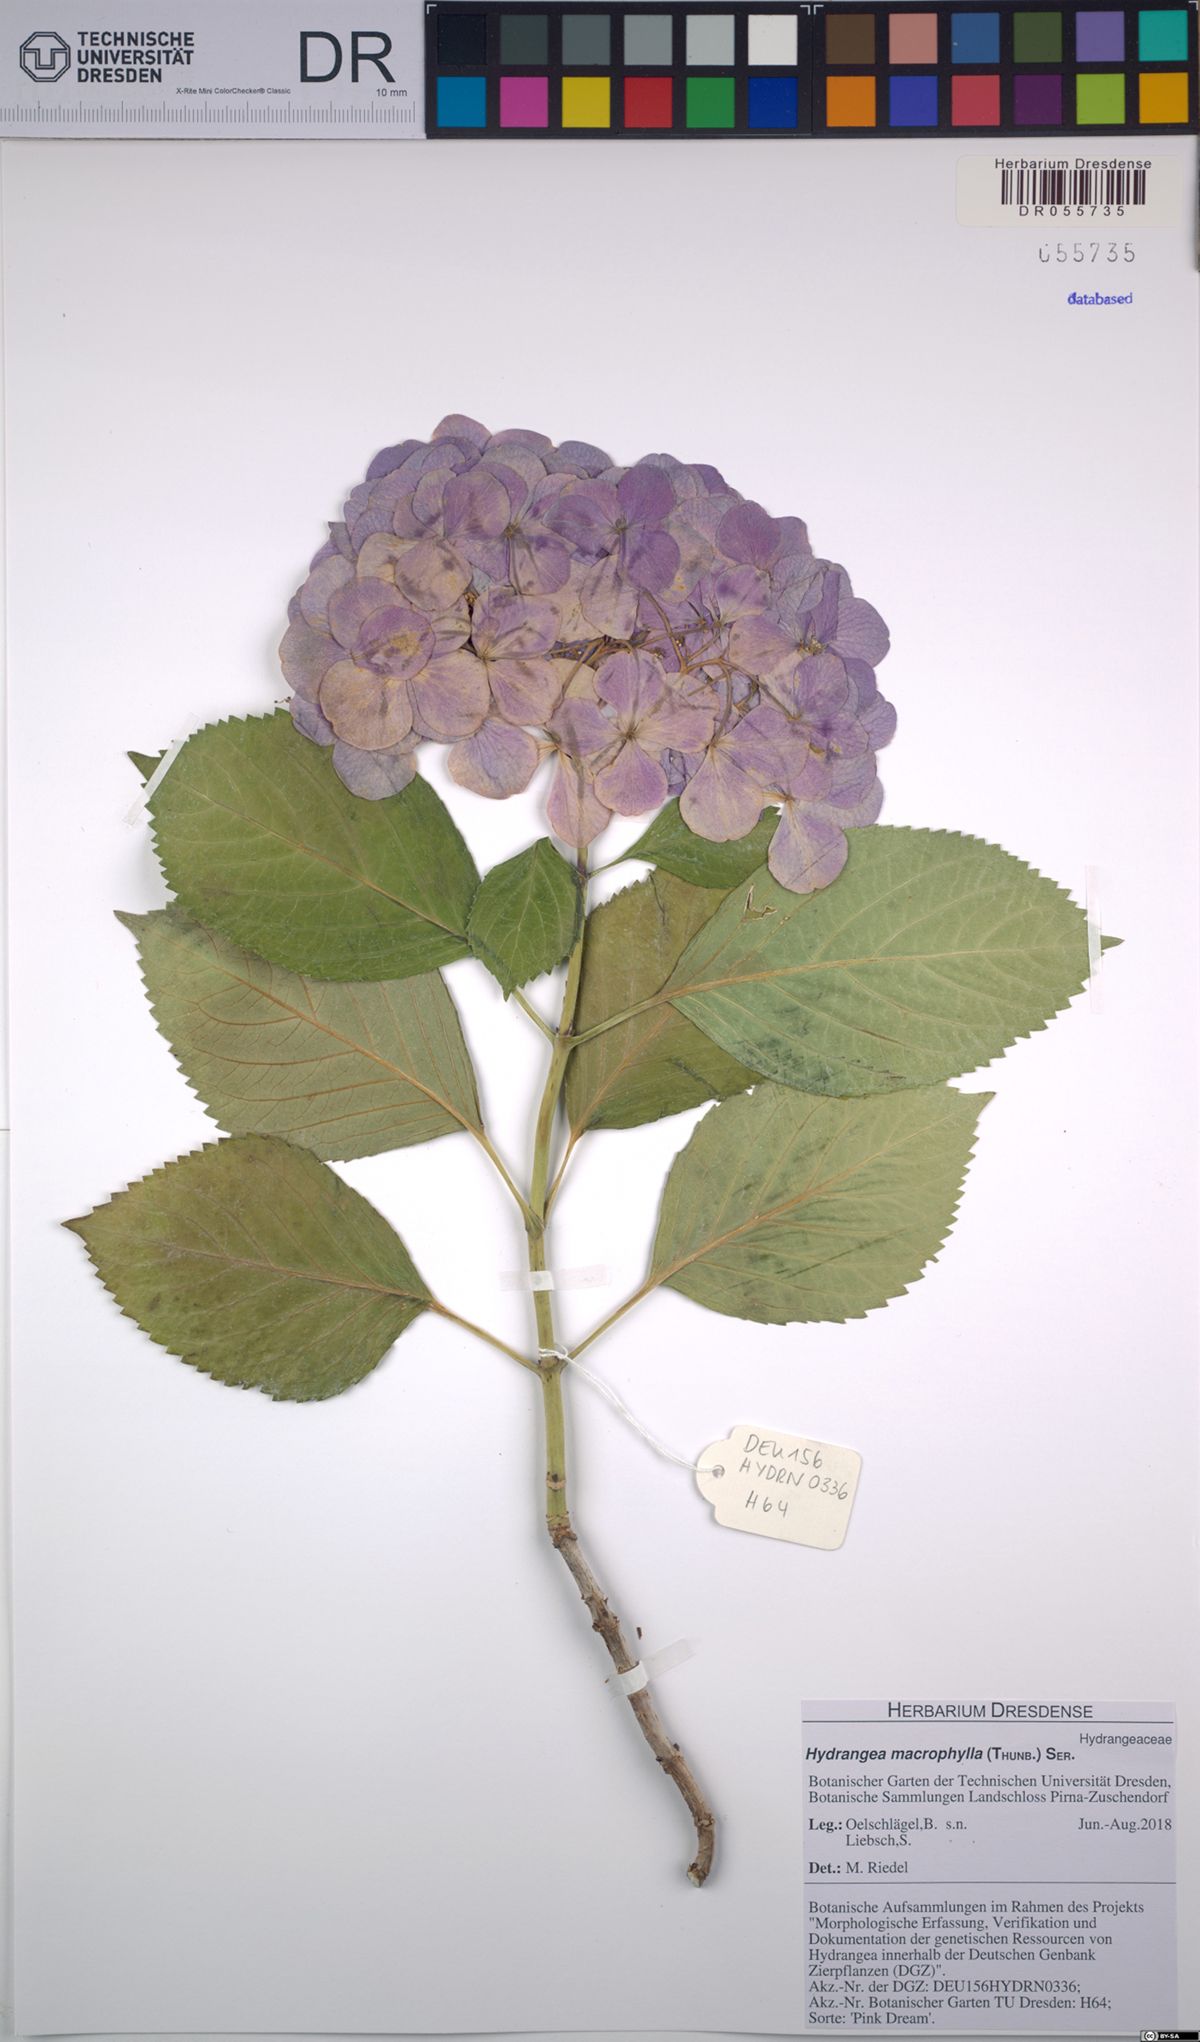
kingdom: Plantae
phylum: Tracheophyta
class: Magnoliopsida
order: Cornales
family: Hydrangeaceae
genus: Hydrangea
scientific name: Hydrangea macrophylla
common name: Hydrangea
